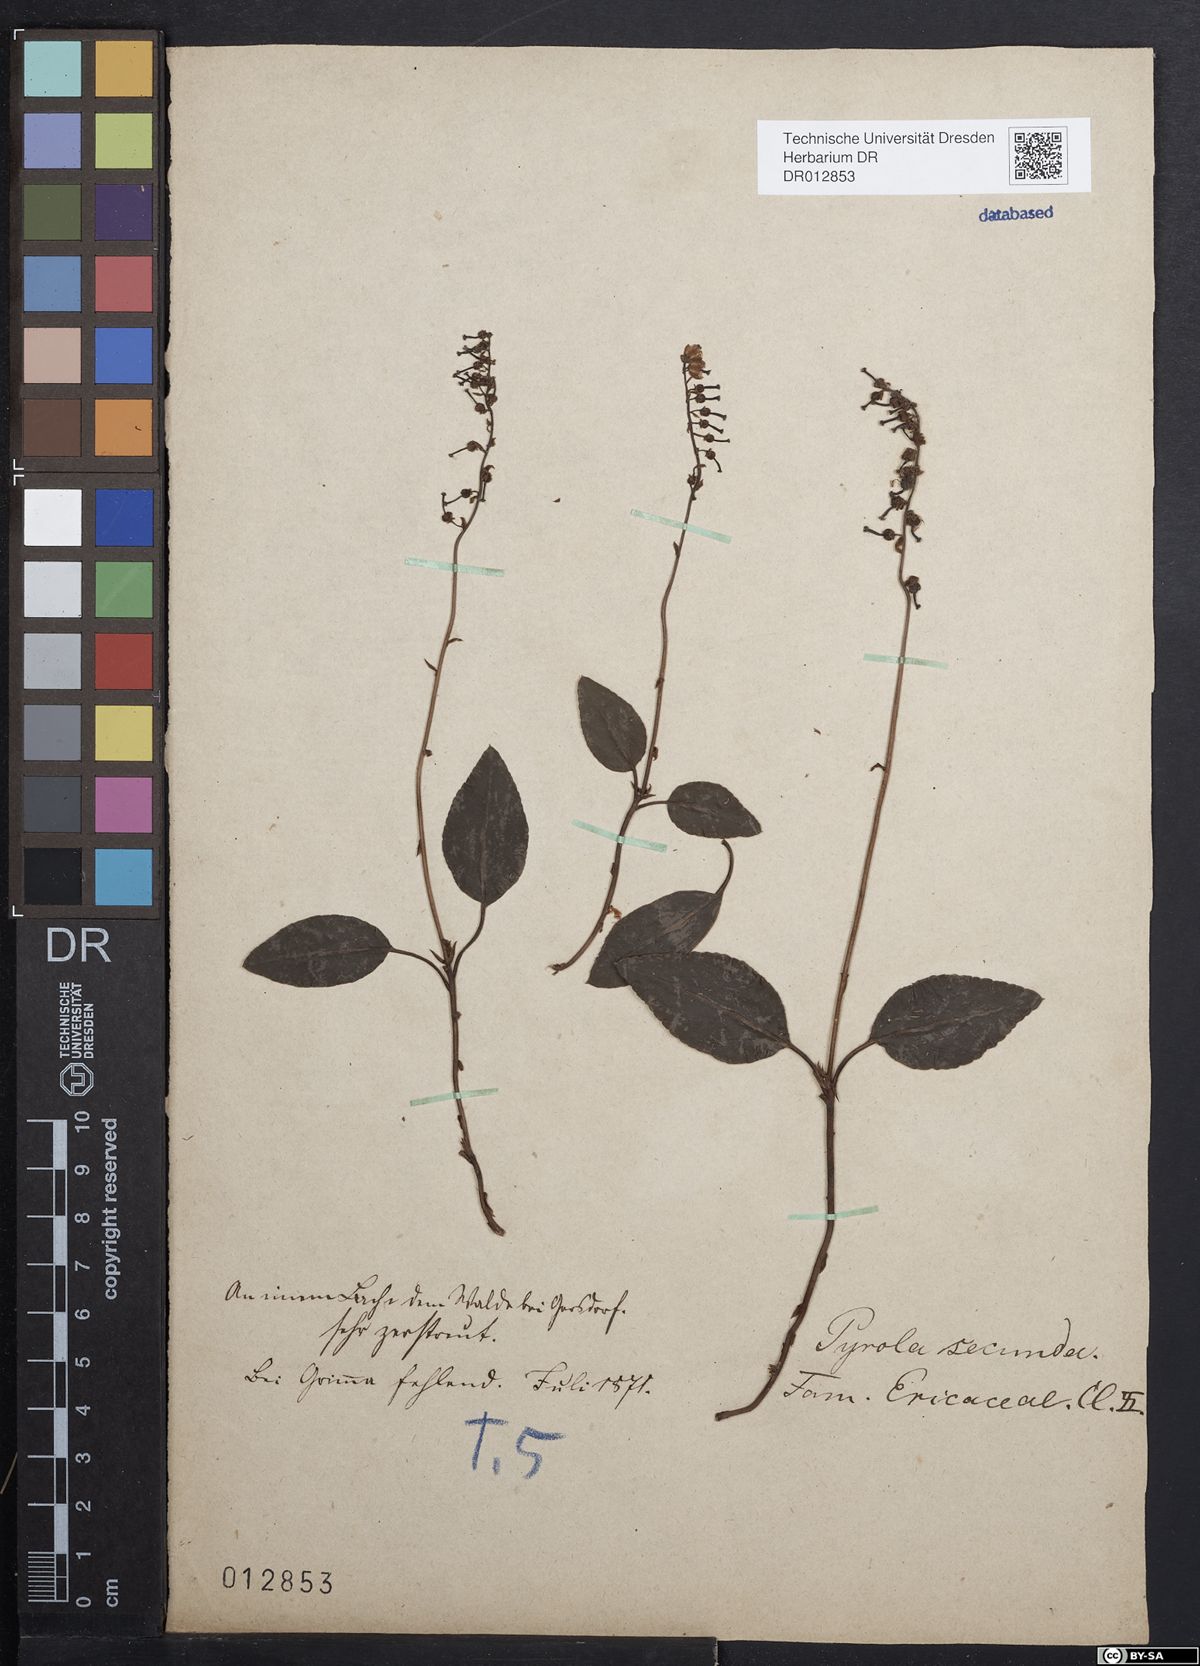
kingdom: Plantae
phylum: Tracheophyta
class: Magnoliopsida
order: Ericales
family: Ericaceae
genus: Orthilia
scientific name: Orthilia secunda
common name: One-sided orthilia
